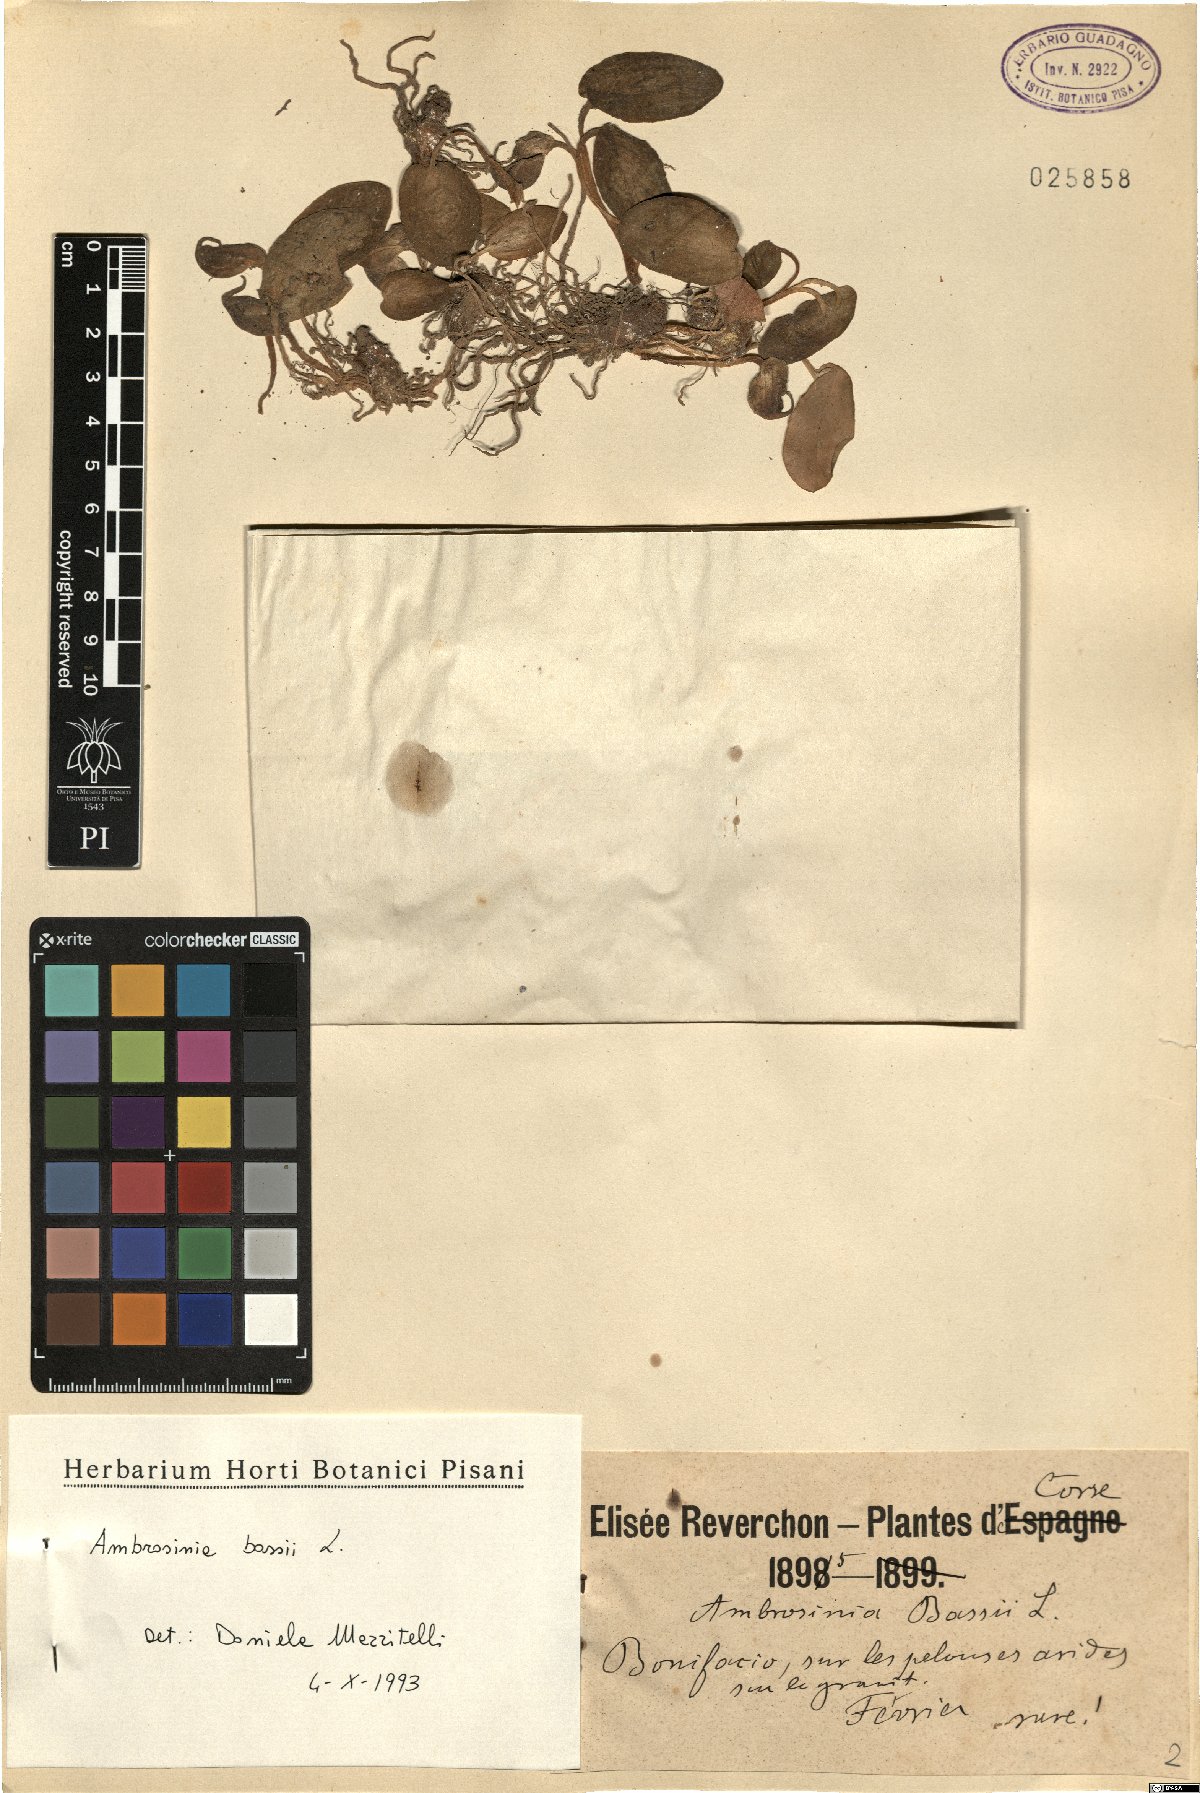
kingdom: Plantae
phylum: Tracheophyta
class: Liliopsida
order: Alismatales
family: Araceae
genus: Ambrosina
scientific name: Ambrosina bassii
